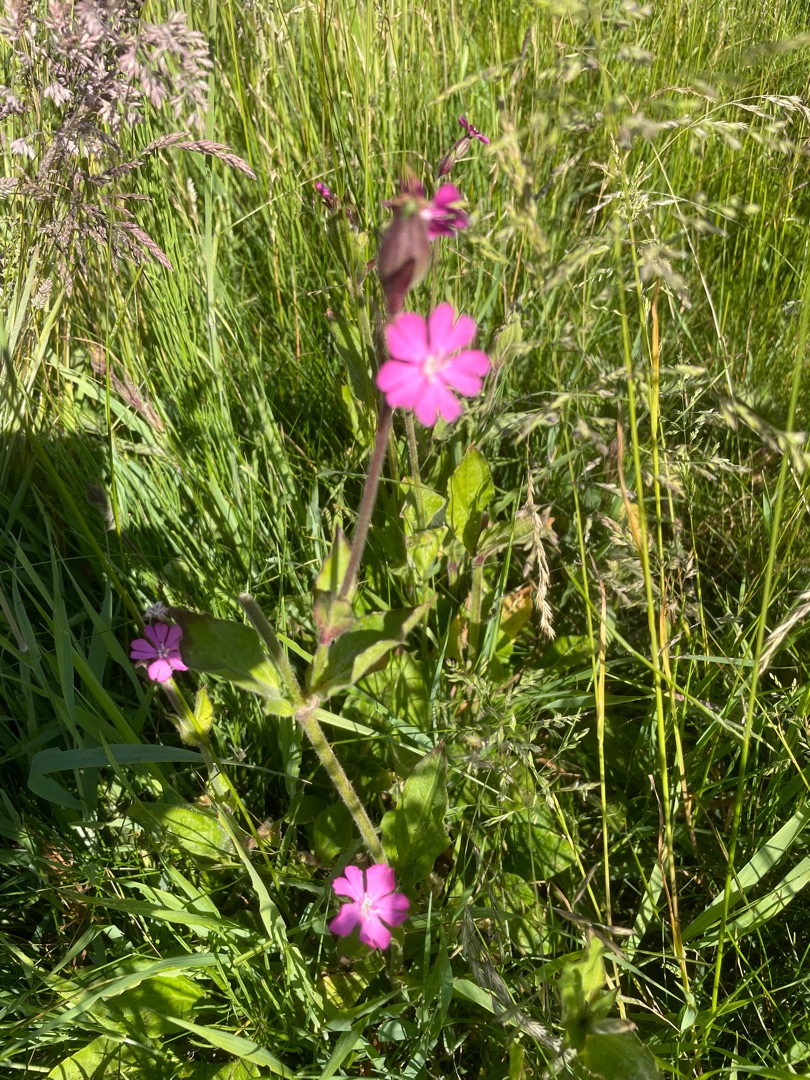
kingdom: Plantae
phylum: Tracheophyta
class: Magnoliopsida
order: Caryophyllales
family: Caryophyllaceae
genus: Silene
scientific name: Silene dioica
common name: Dagpragtstjerne
